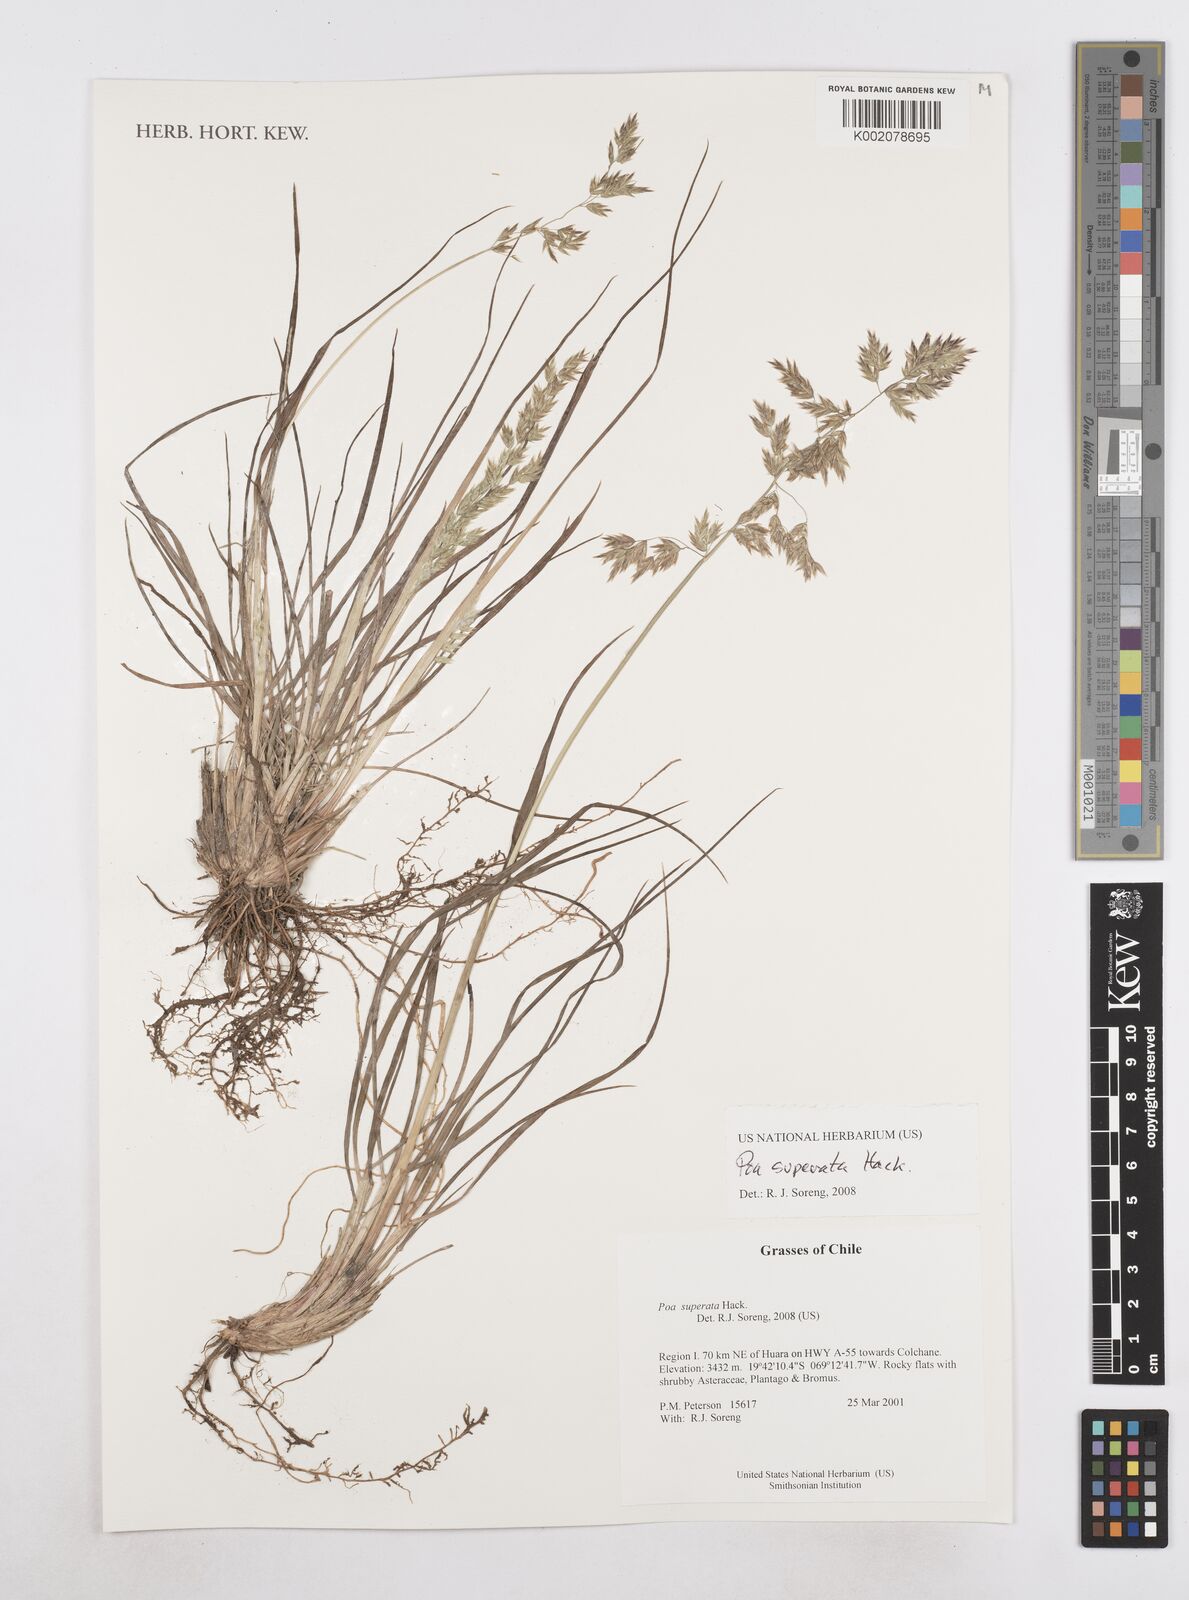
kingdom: Plantae
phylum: Tracheophyta
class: Liliopsida
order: Poales
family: Poaceae
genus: Poa
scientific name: Poa grisebachii
